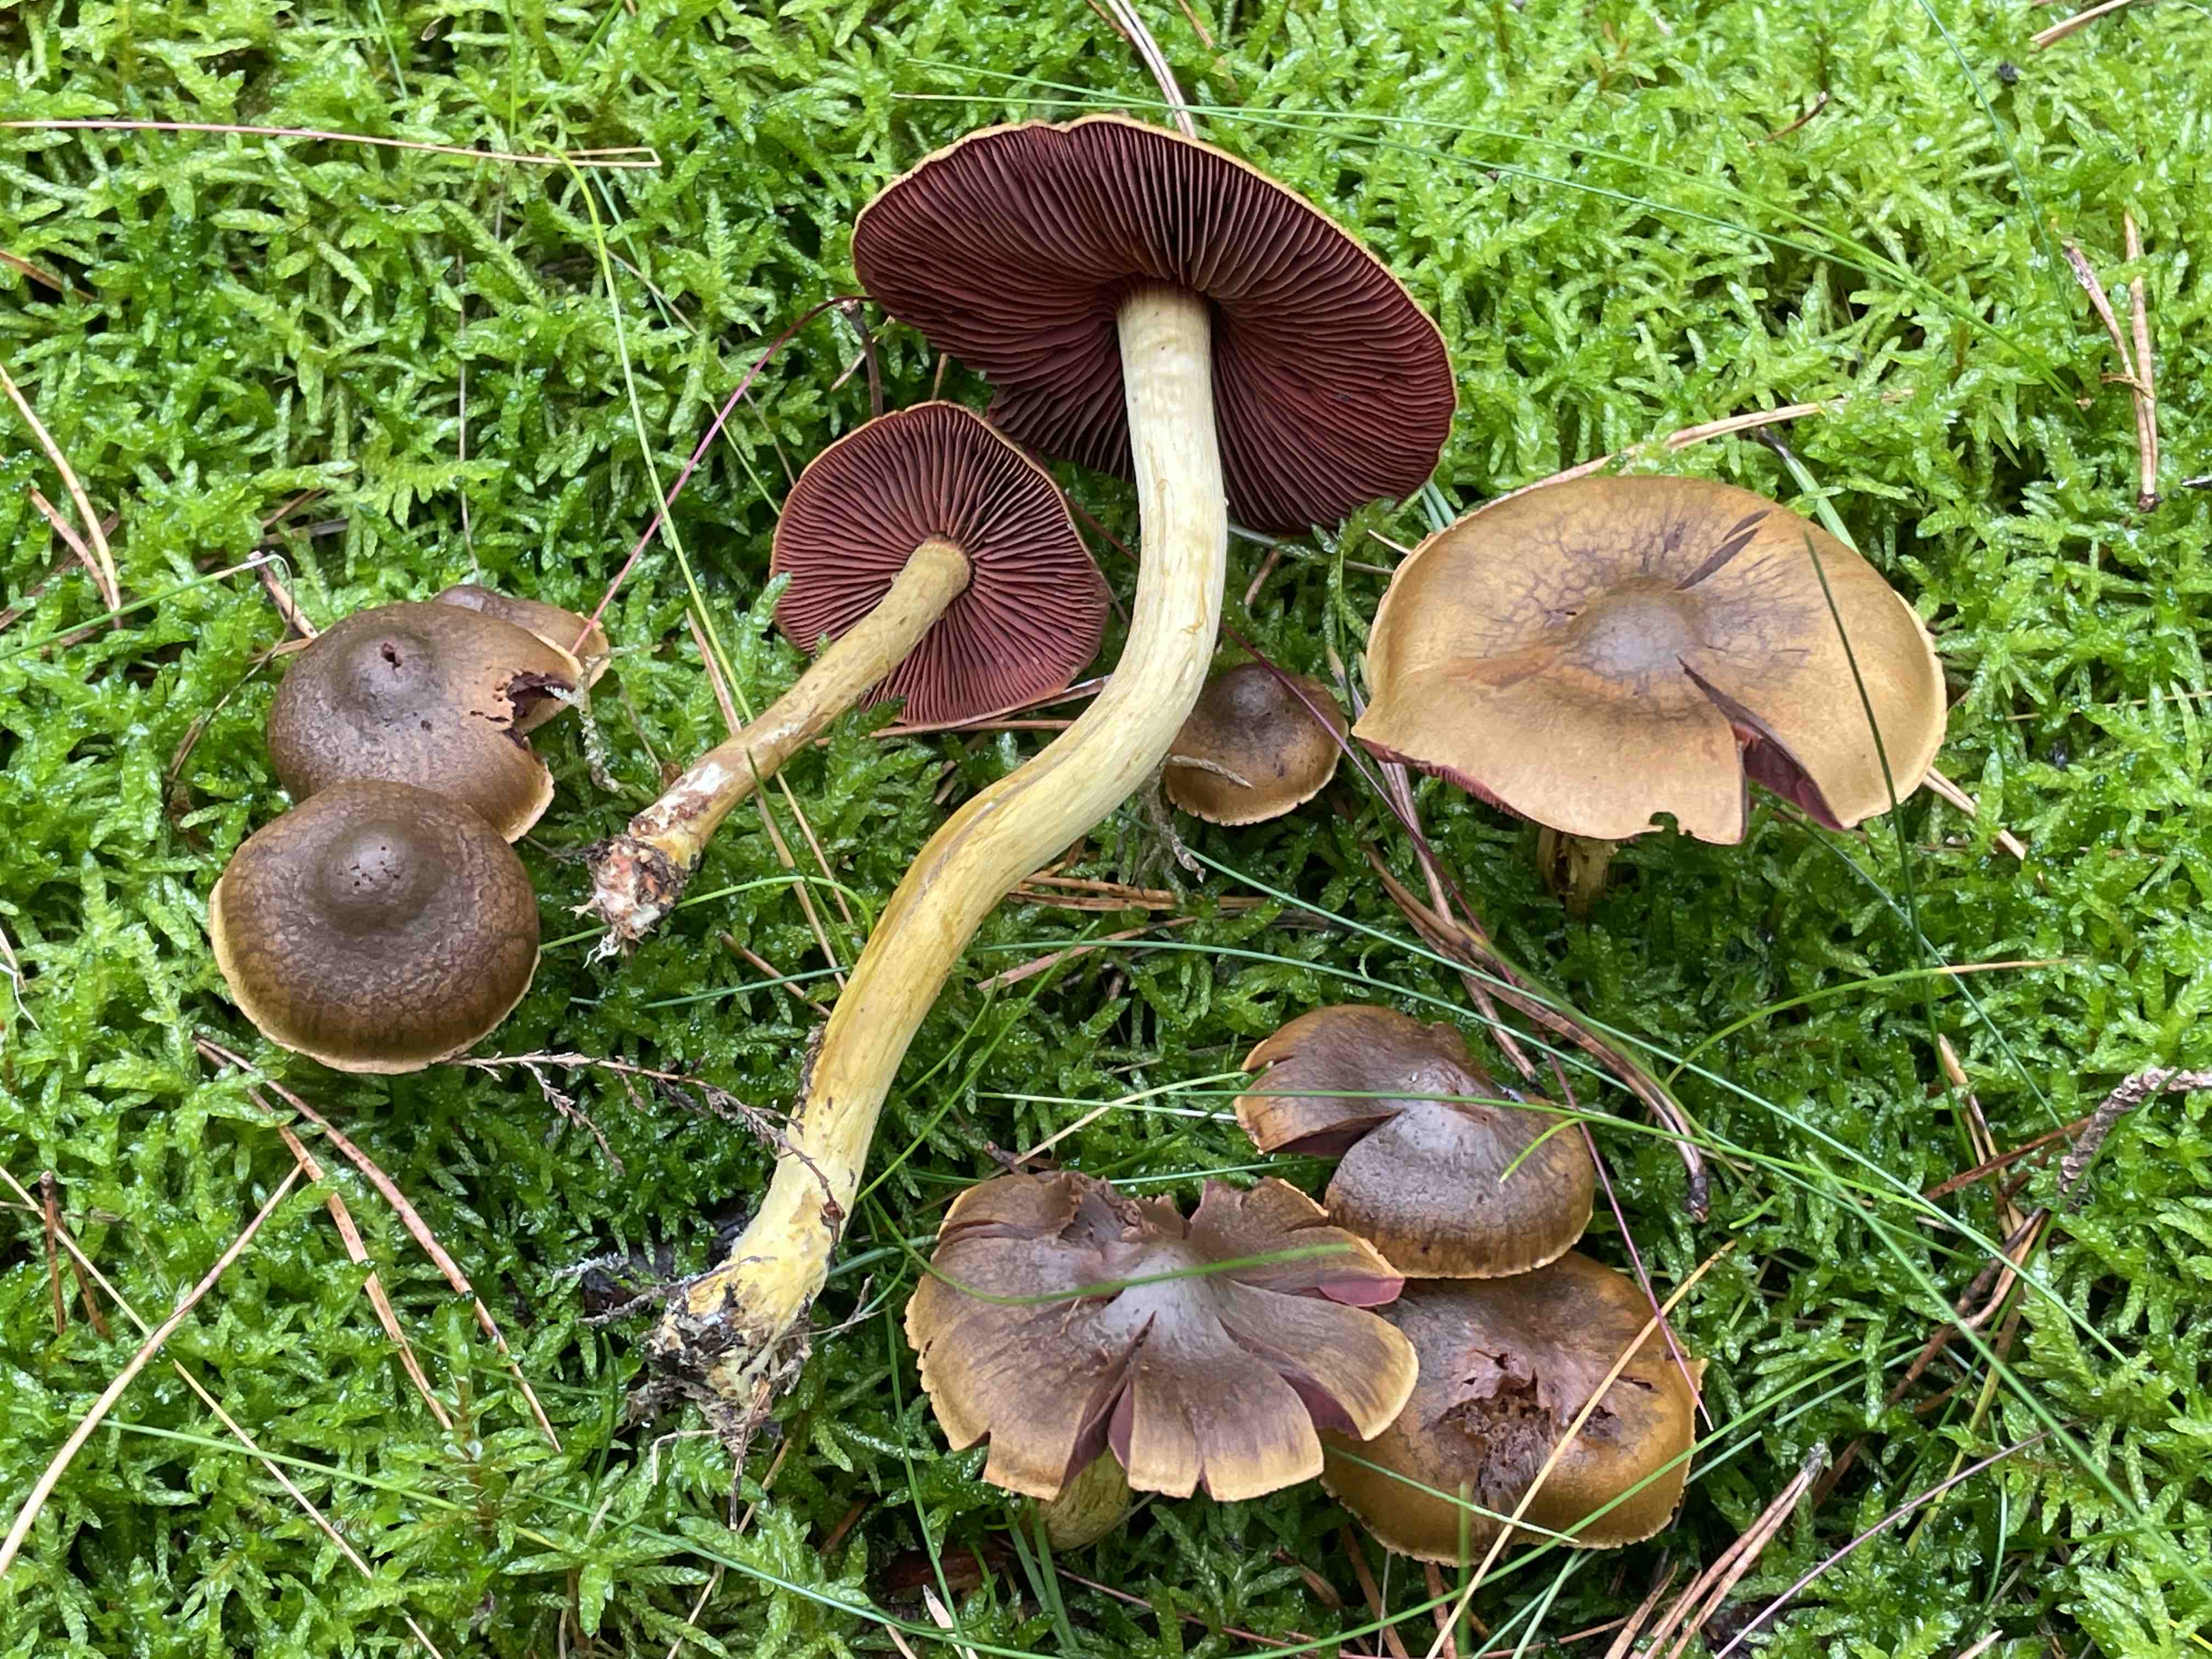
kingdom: Fungi
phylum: Basidiomycota
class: Agaricomycetes
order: Agaricales
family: Cortinariaceae
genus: Cortinarius
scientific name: Cortinarius
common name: cinnoberbladet slørhat
